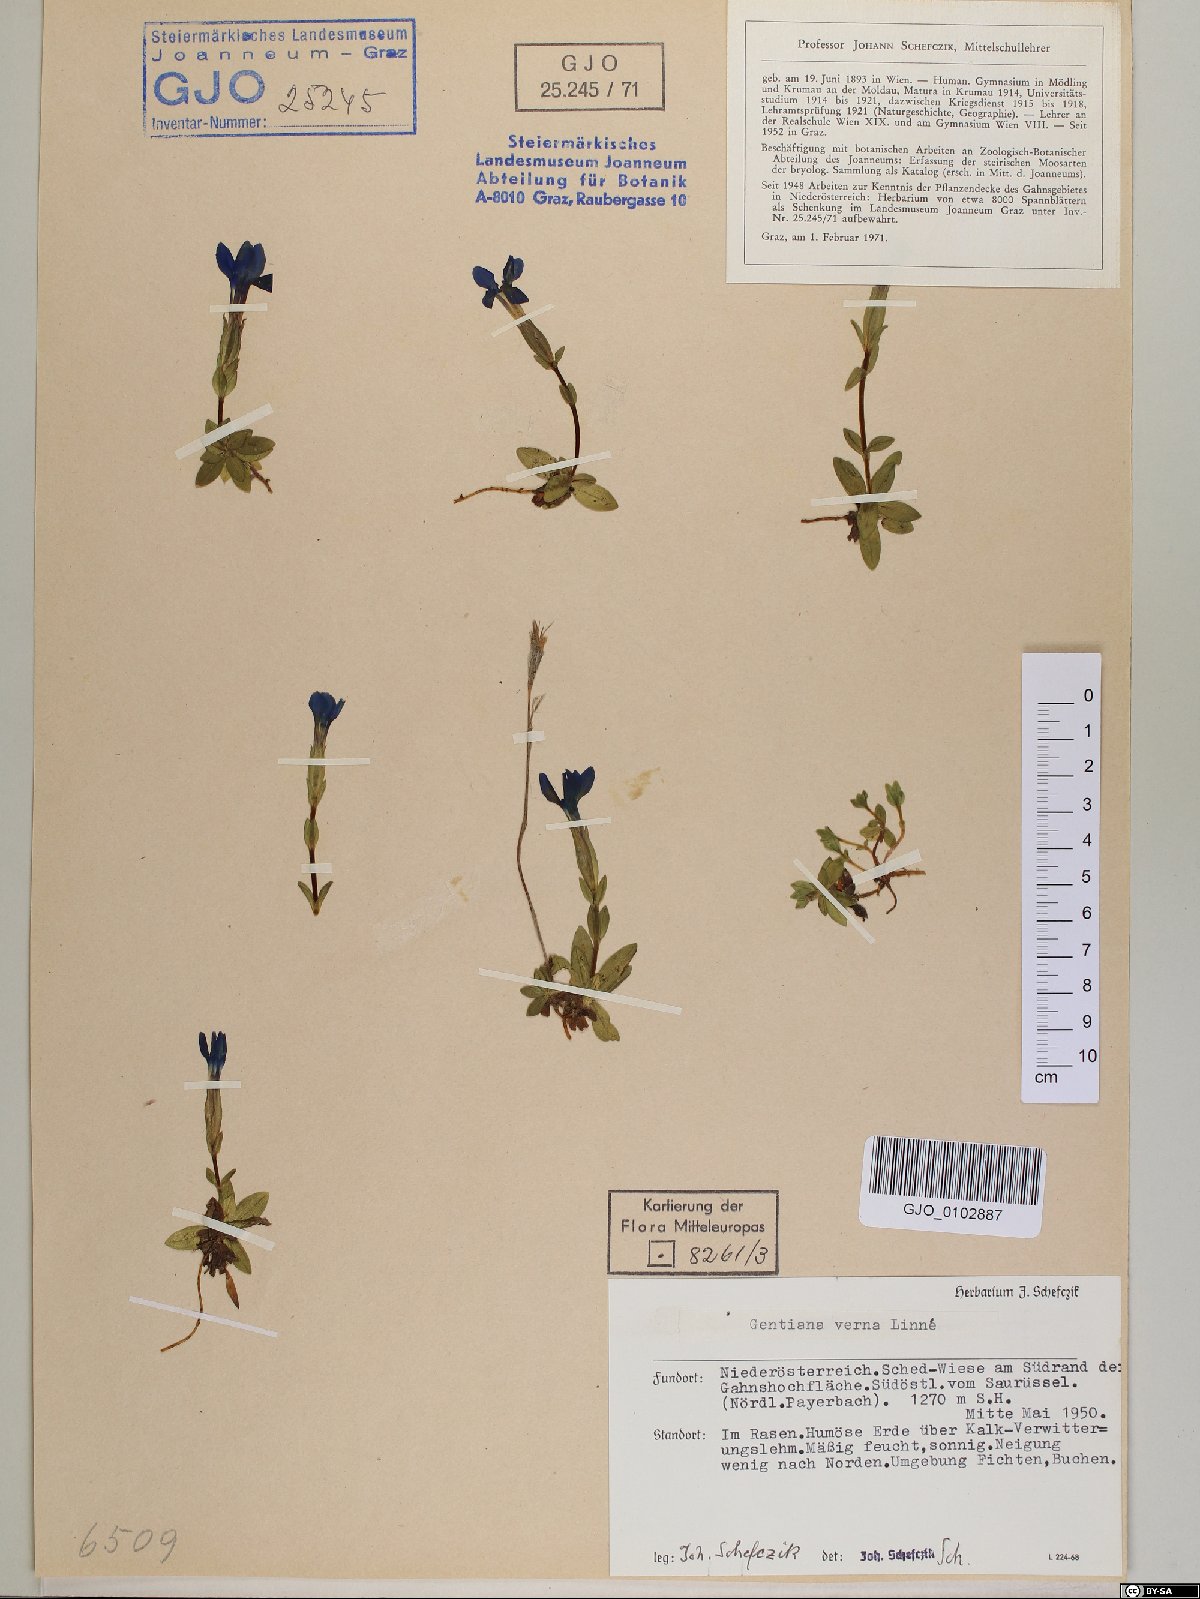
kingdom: Plantae
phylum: Tracheophyta
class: Magnoliopsida
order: Gentianales
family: Gentianaceae
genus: Gentiana
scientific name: Gentiana verna
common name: Spring gentian
